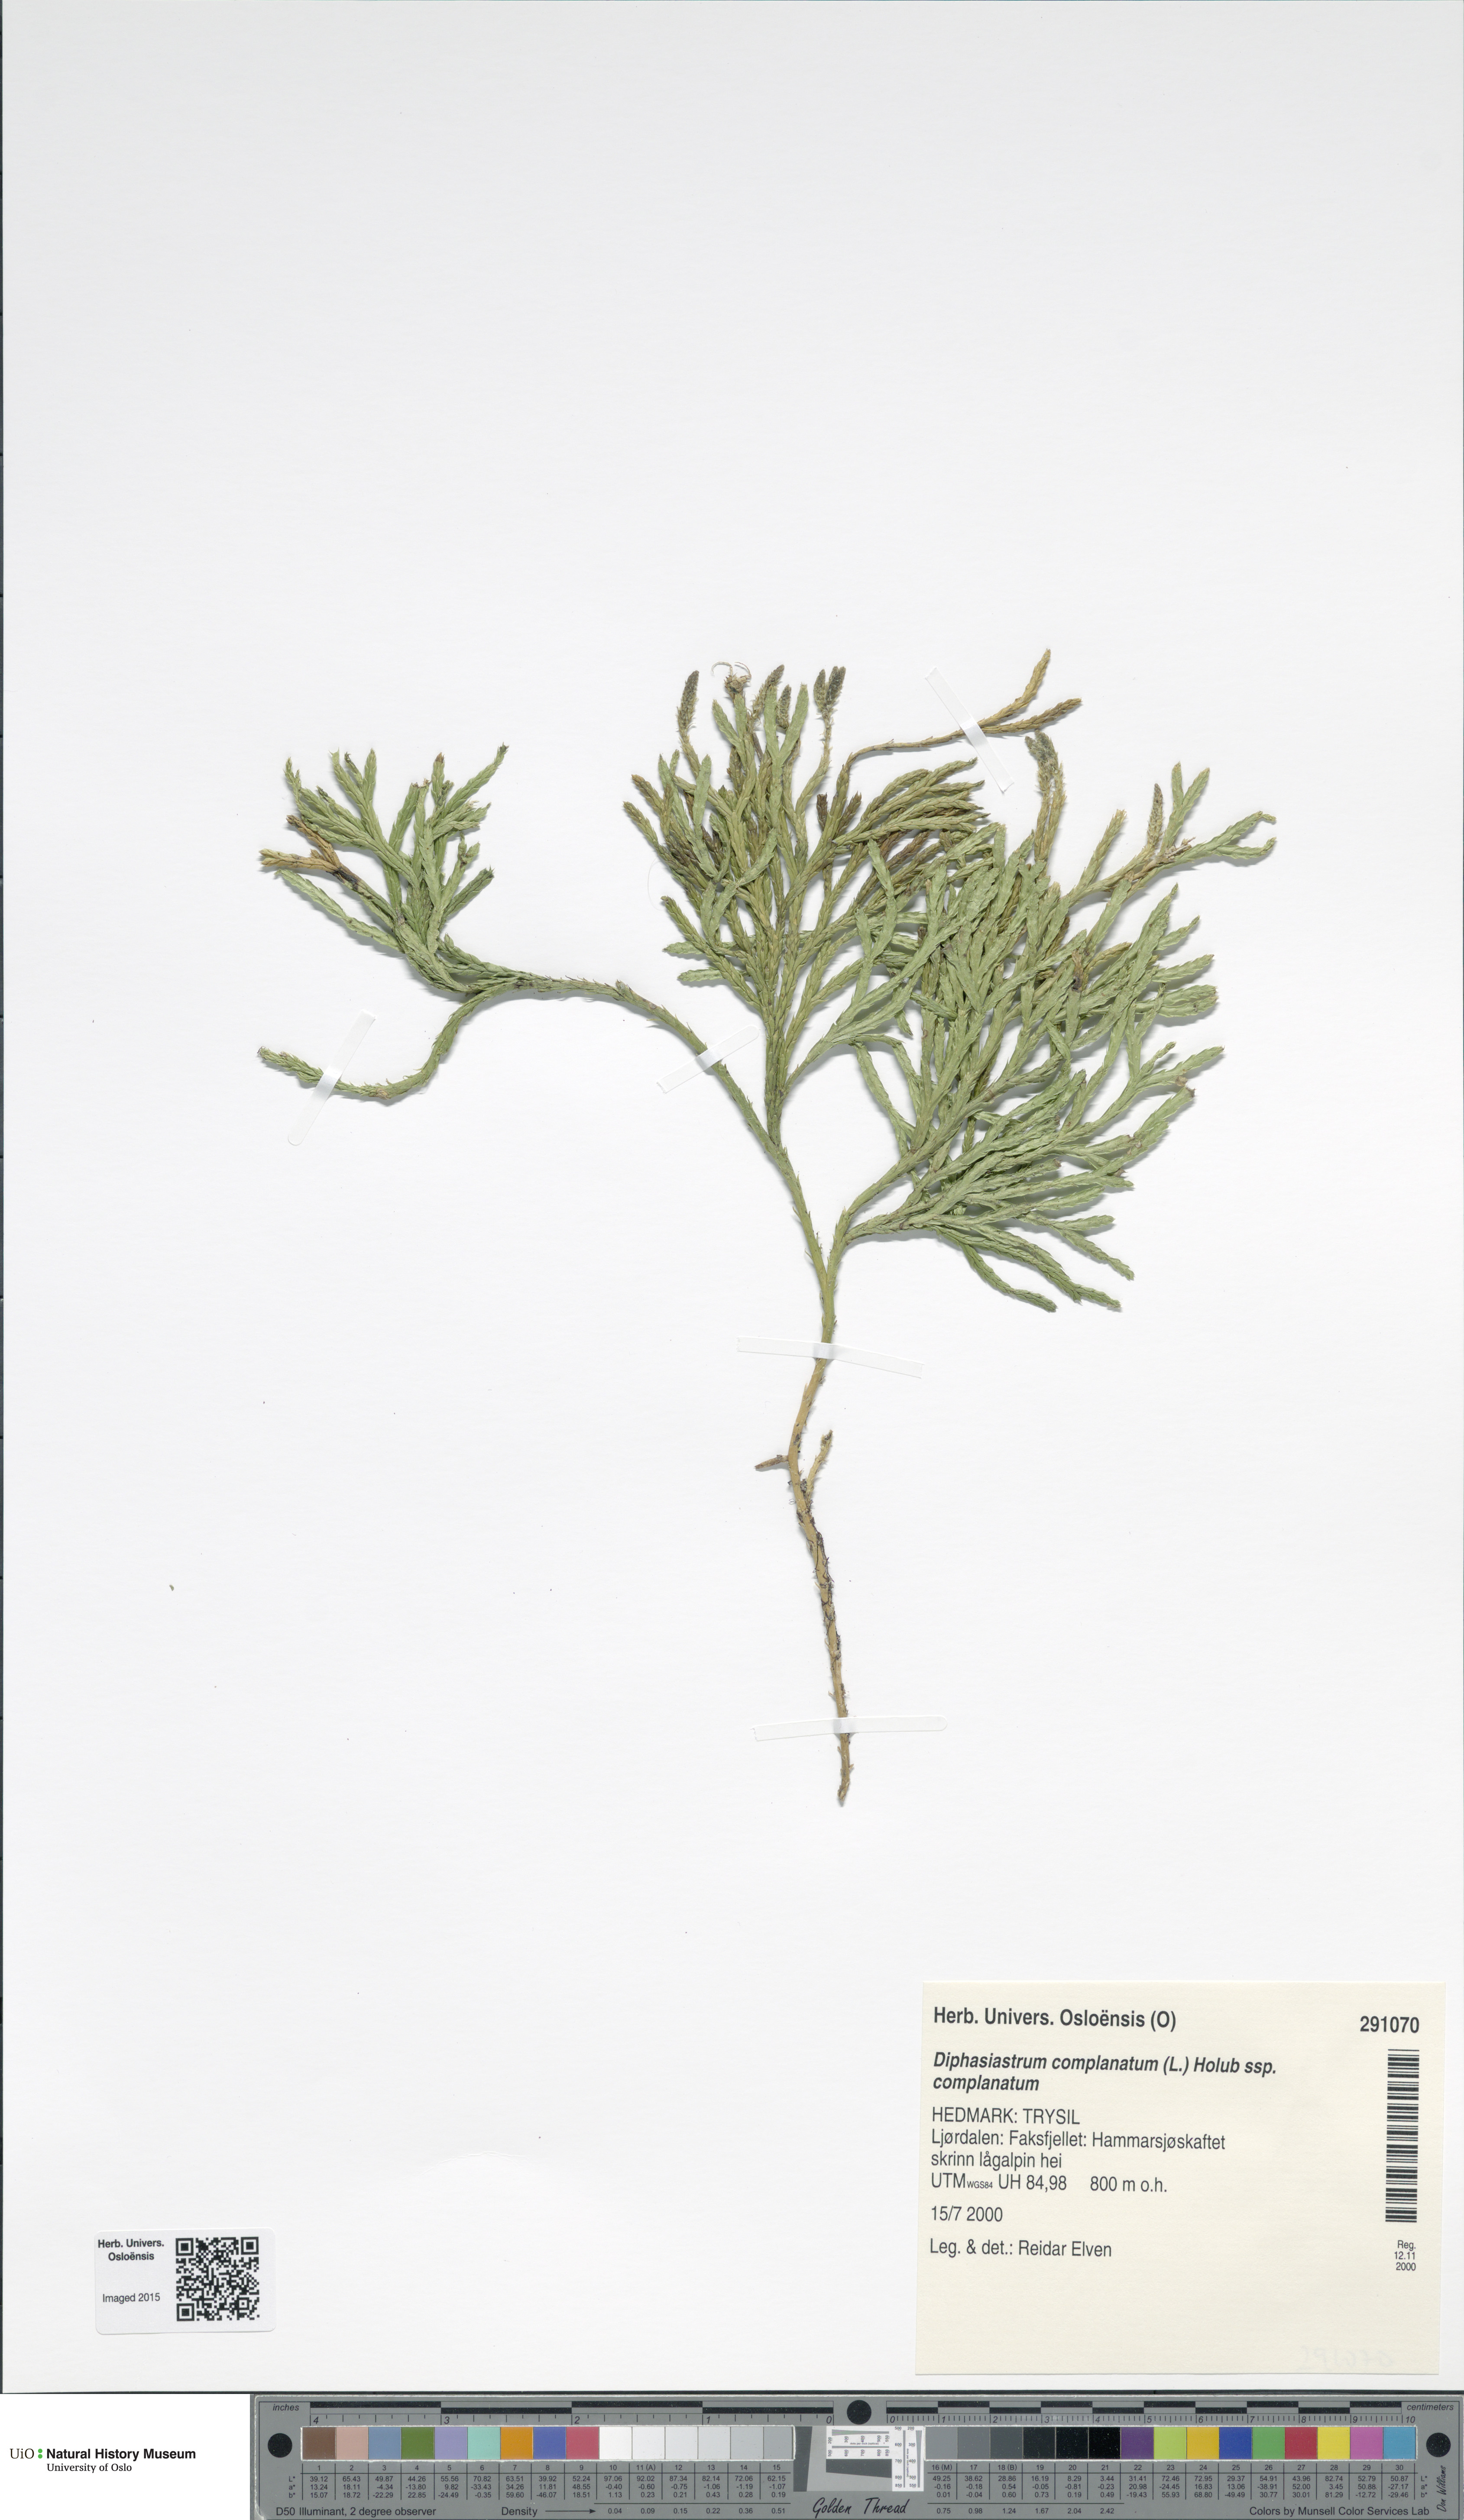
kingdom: Plantae
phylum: Tracheophyta
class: Lycopodiopsida
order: Lycopodiales
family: Lycopodiaceae
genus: Diphasiastrum
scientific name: Diphasiastrum complanatum
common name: Northern running-pine
